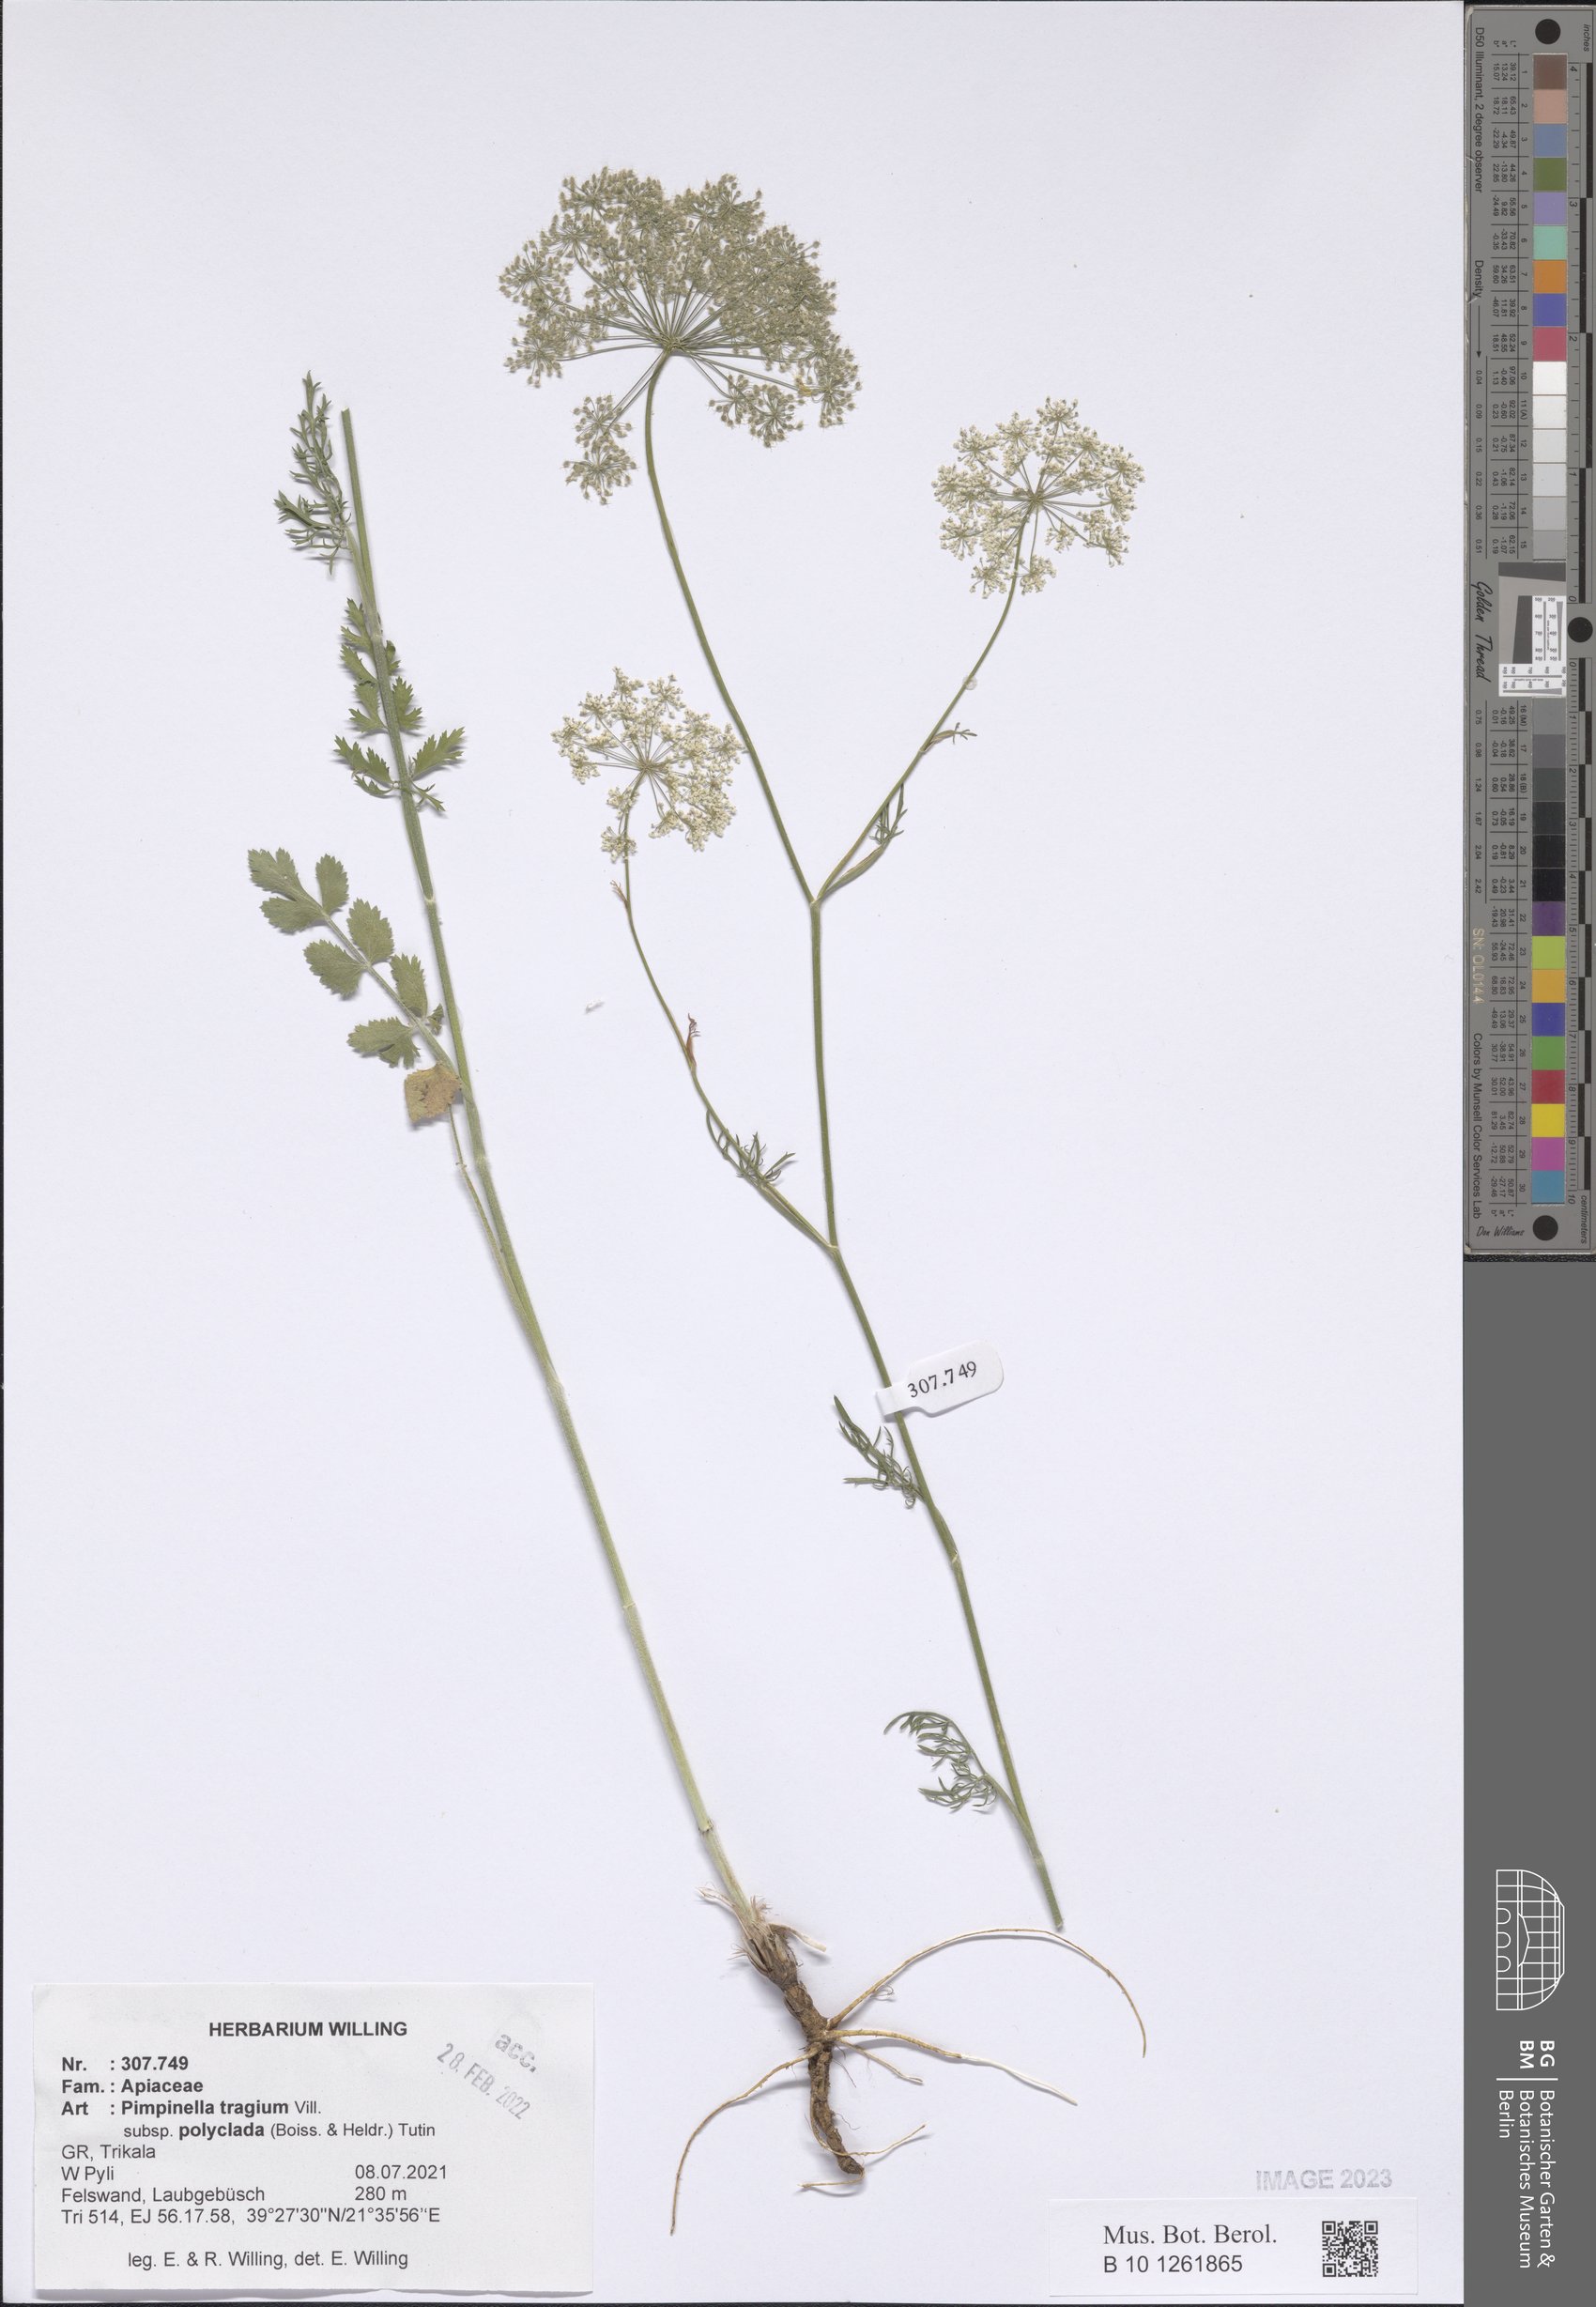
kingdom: Plantae
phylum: Tracheophyta
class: Magnoliopsida
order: Apiales
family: Apiaceae
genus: Pimpinella
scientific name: Pimpinella tragium
